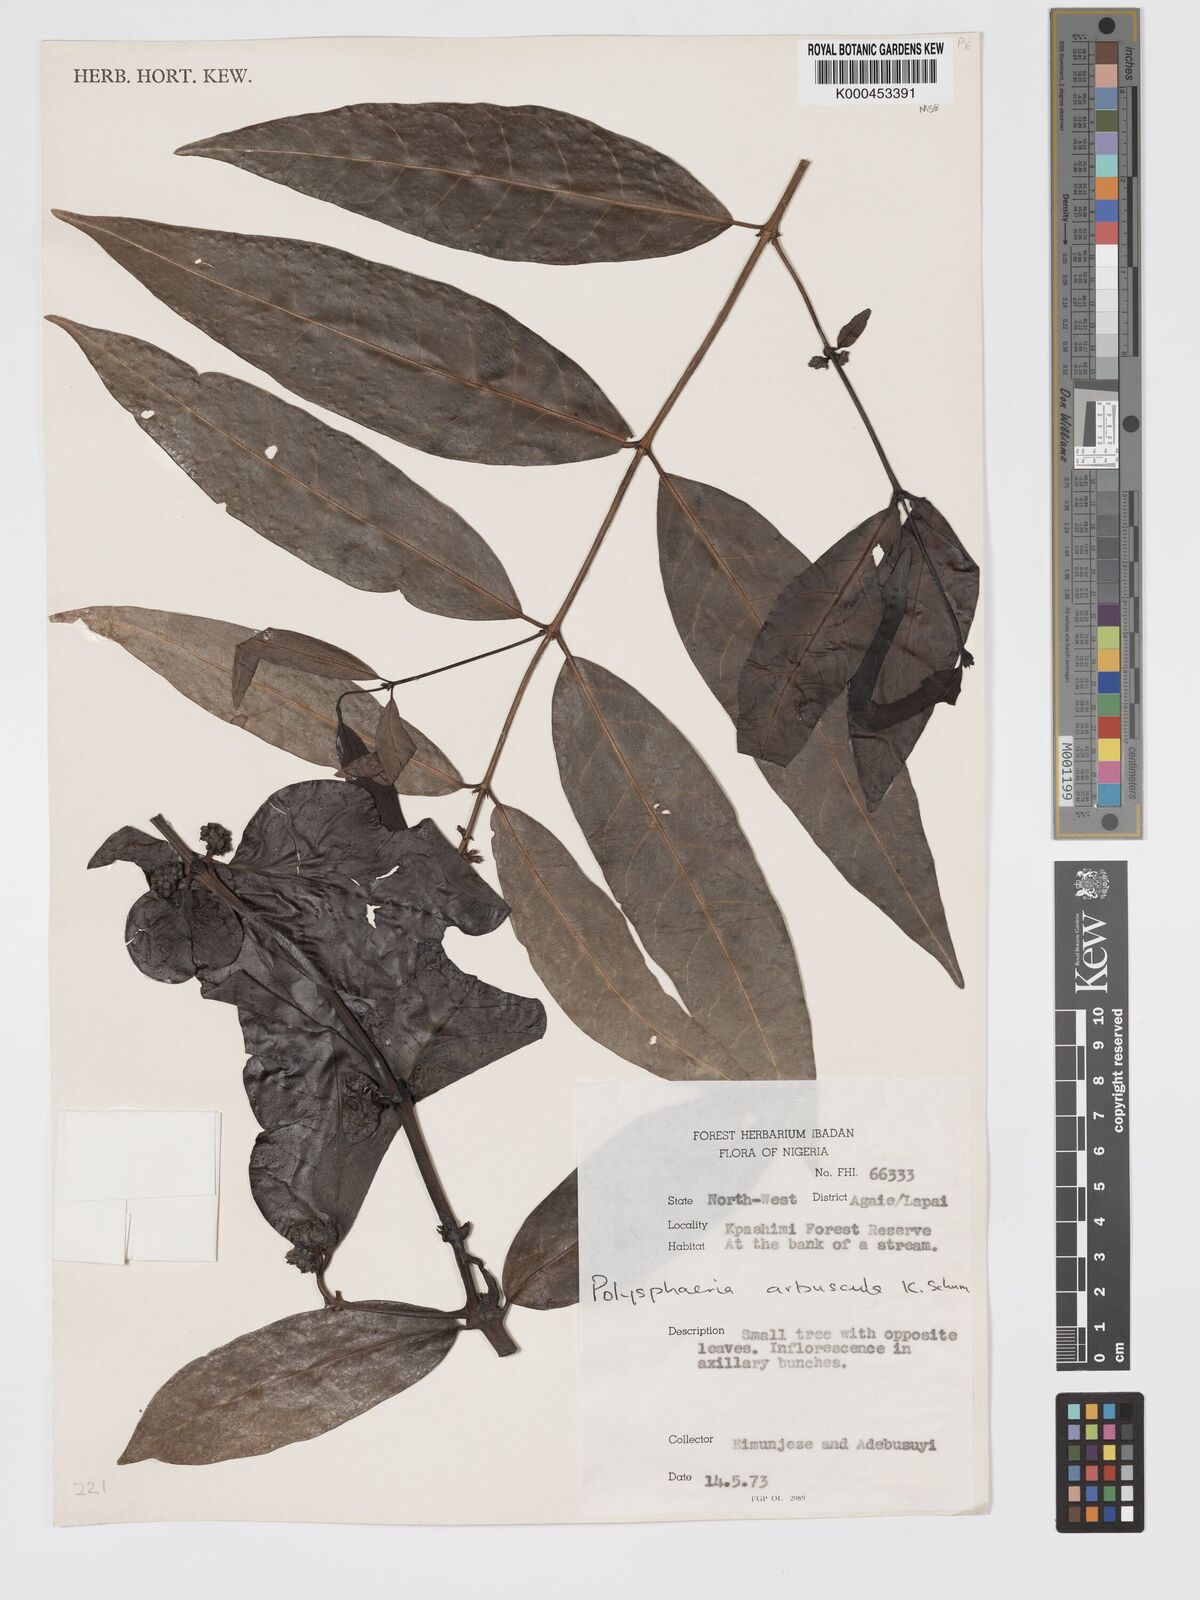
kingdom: Plantae
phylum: Tracheophyta
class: Magnoliopsida
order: Gentianales
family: Rubiaceae
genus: Polysphaeria
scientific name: Polysphaeria arbuscula
